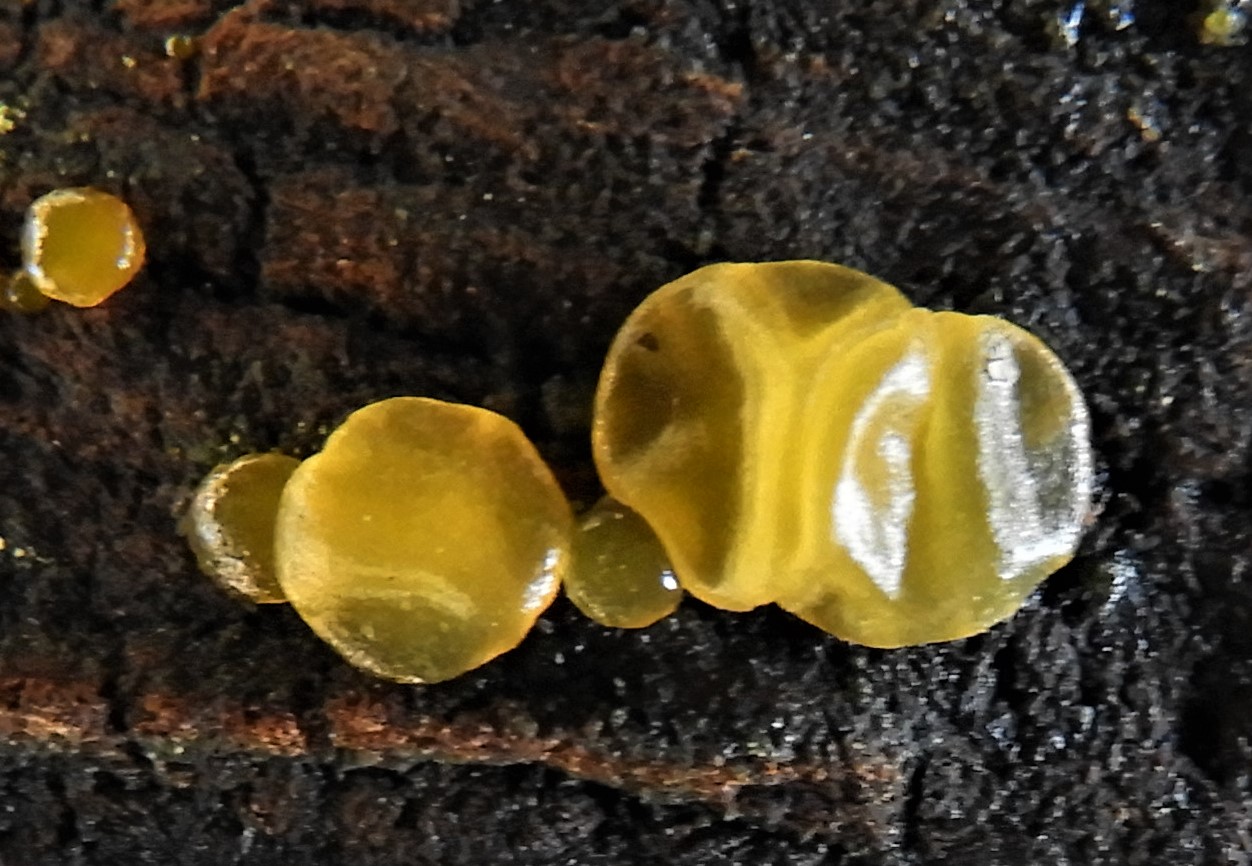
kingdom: Fungi
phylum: Basidiomycota
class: Dacrymycetes
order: Dacrymycetales
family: Dacrymycetaceae
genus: Dacrymyces
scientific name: Dacrymyces
